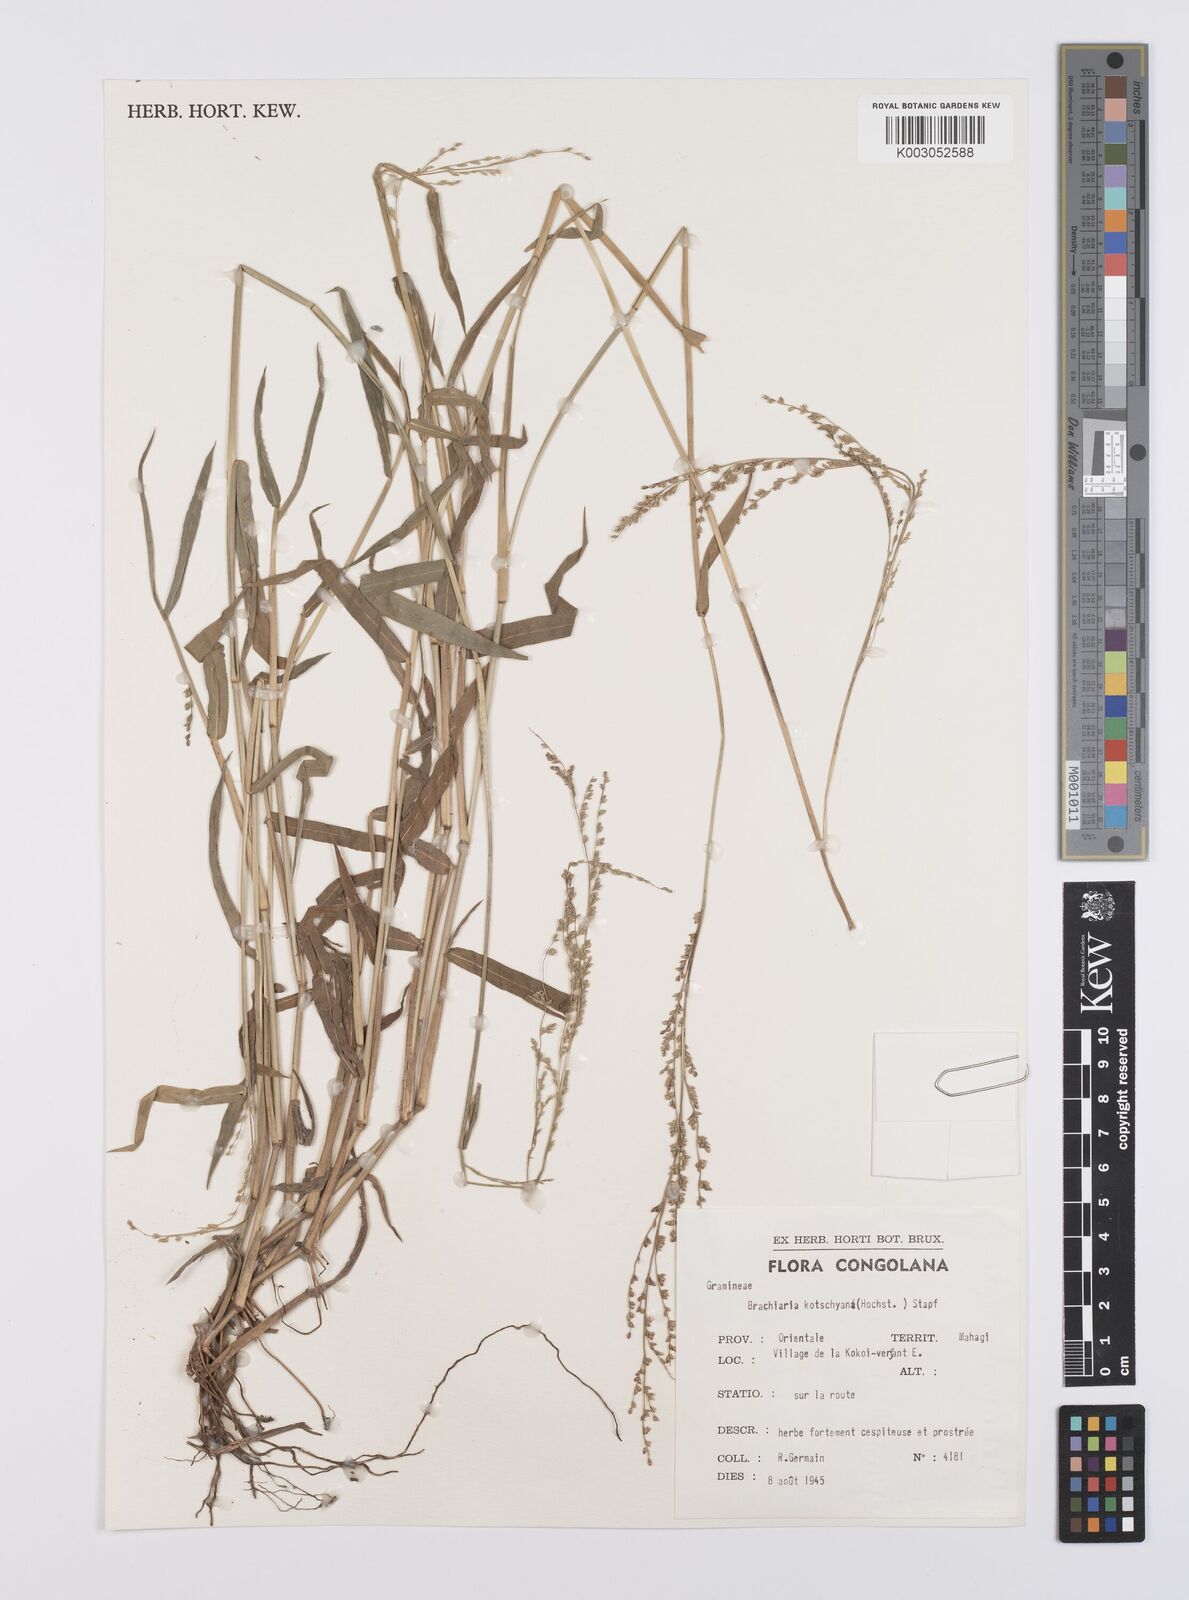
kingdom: Plantae
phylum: Tracheophyta
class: Liliopsida
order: Poales
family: Poaceae
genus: Urochloa
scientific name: Urochloa comata
